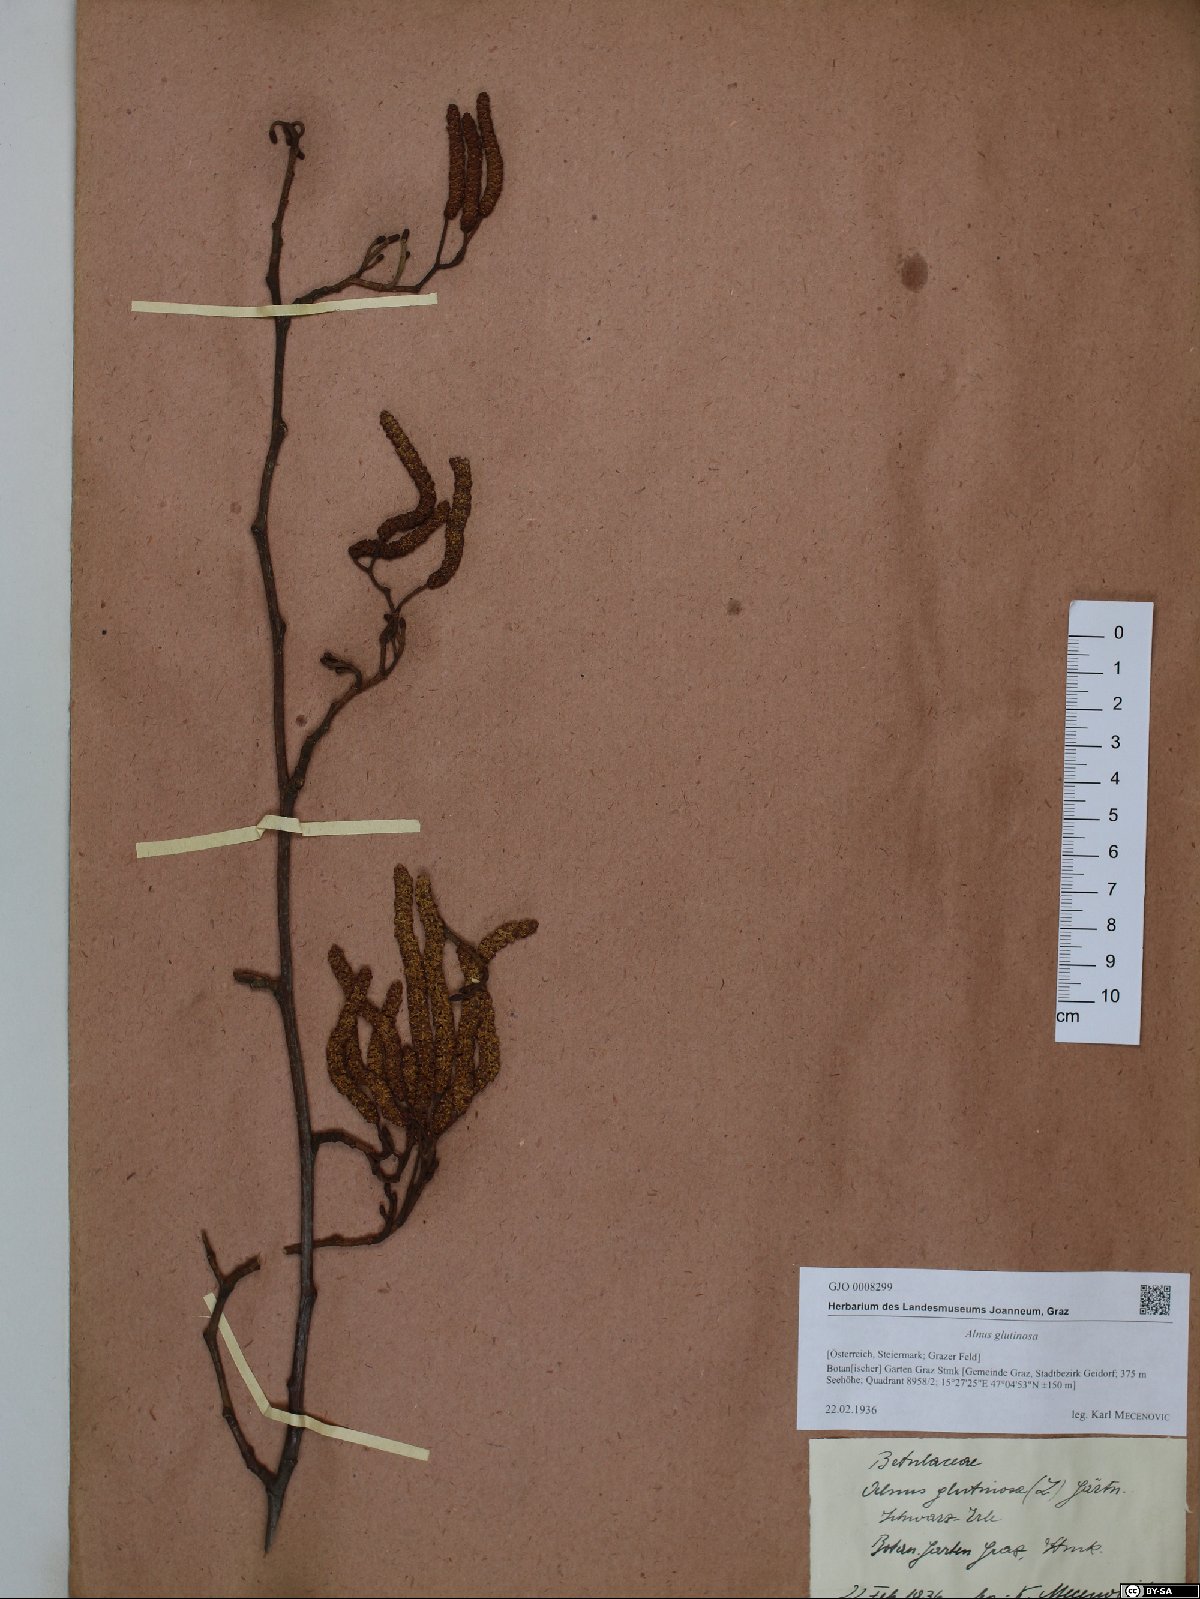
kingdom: Plantae
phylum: Tracheophyta
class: Magnoliopsida
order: Fagales
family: Betulaceae
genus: Alnus
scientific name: Alnus glutinosa
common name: Black alder
